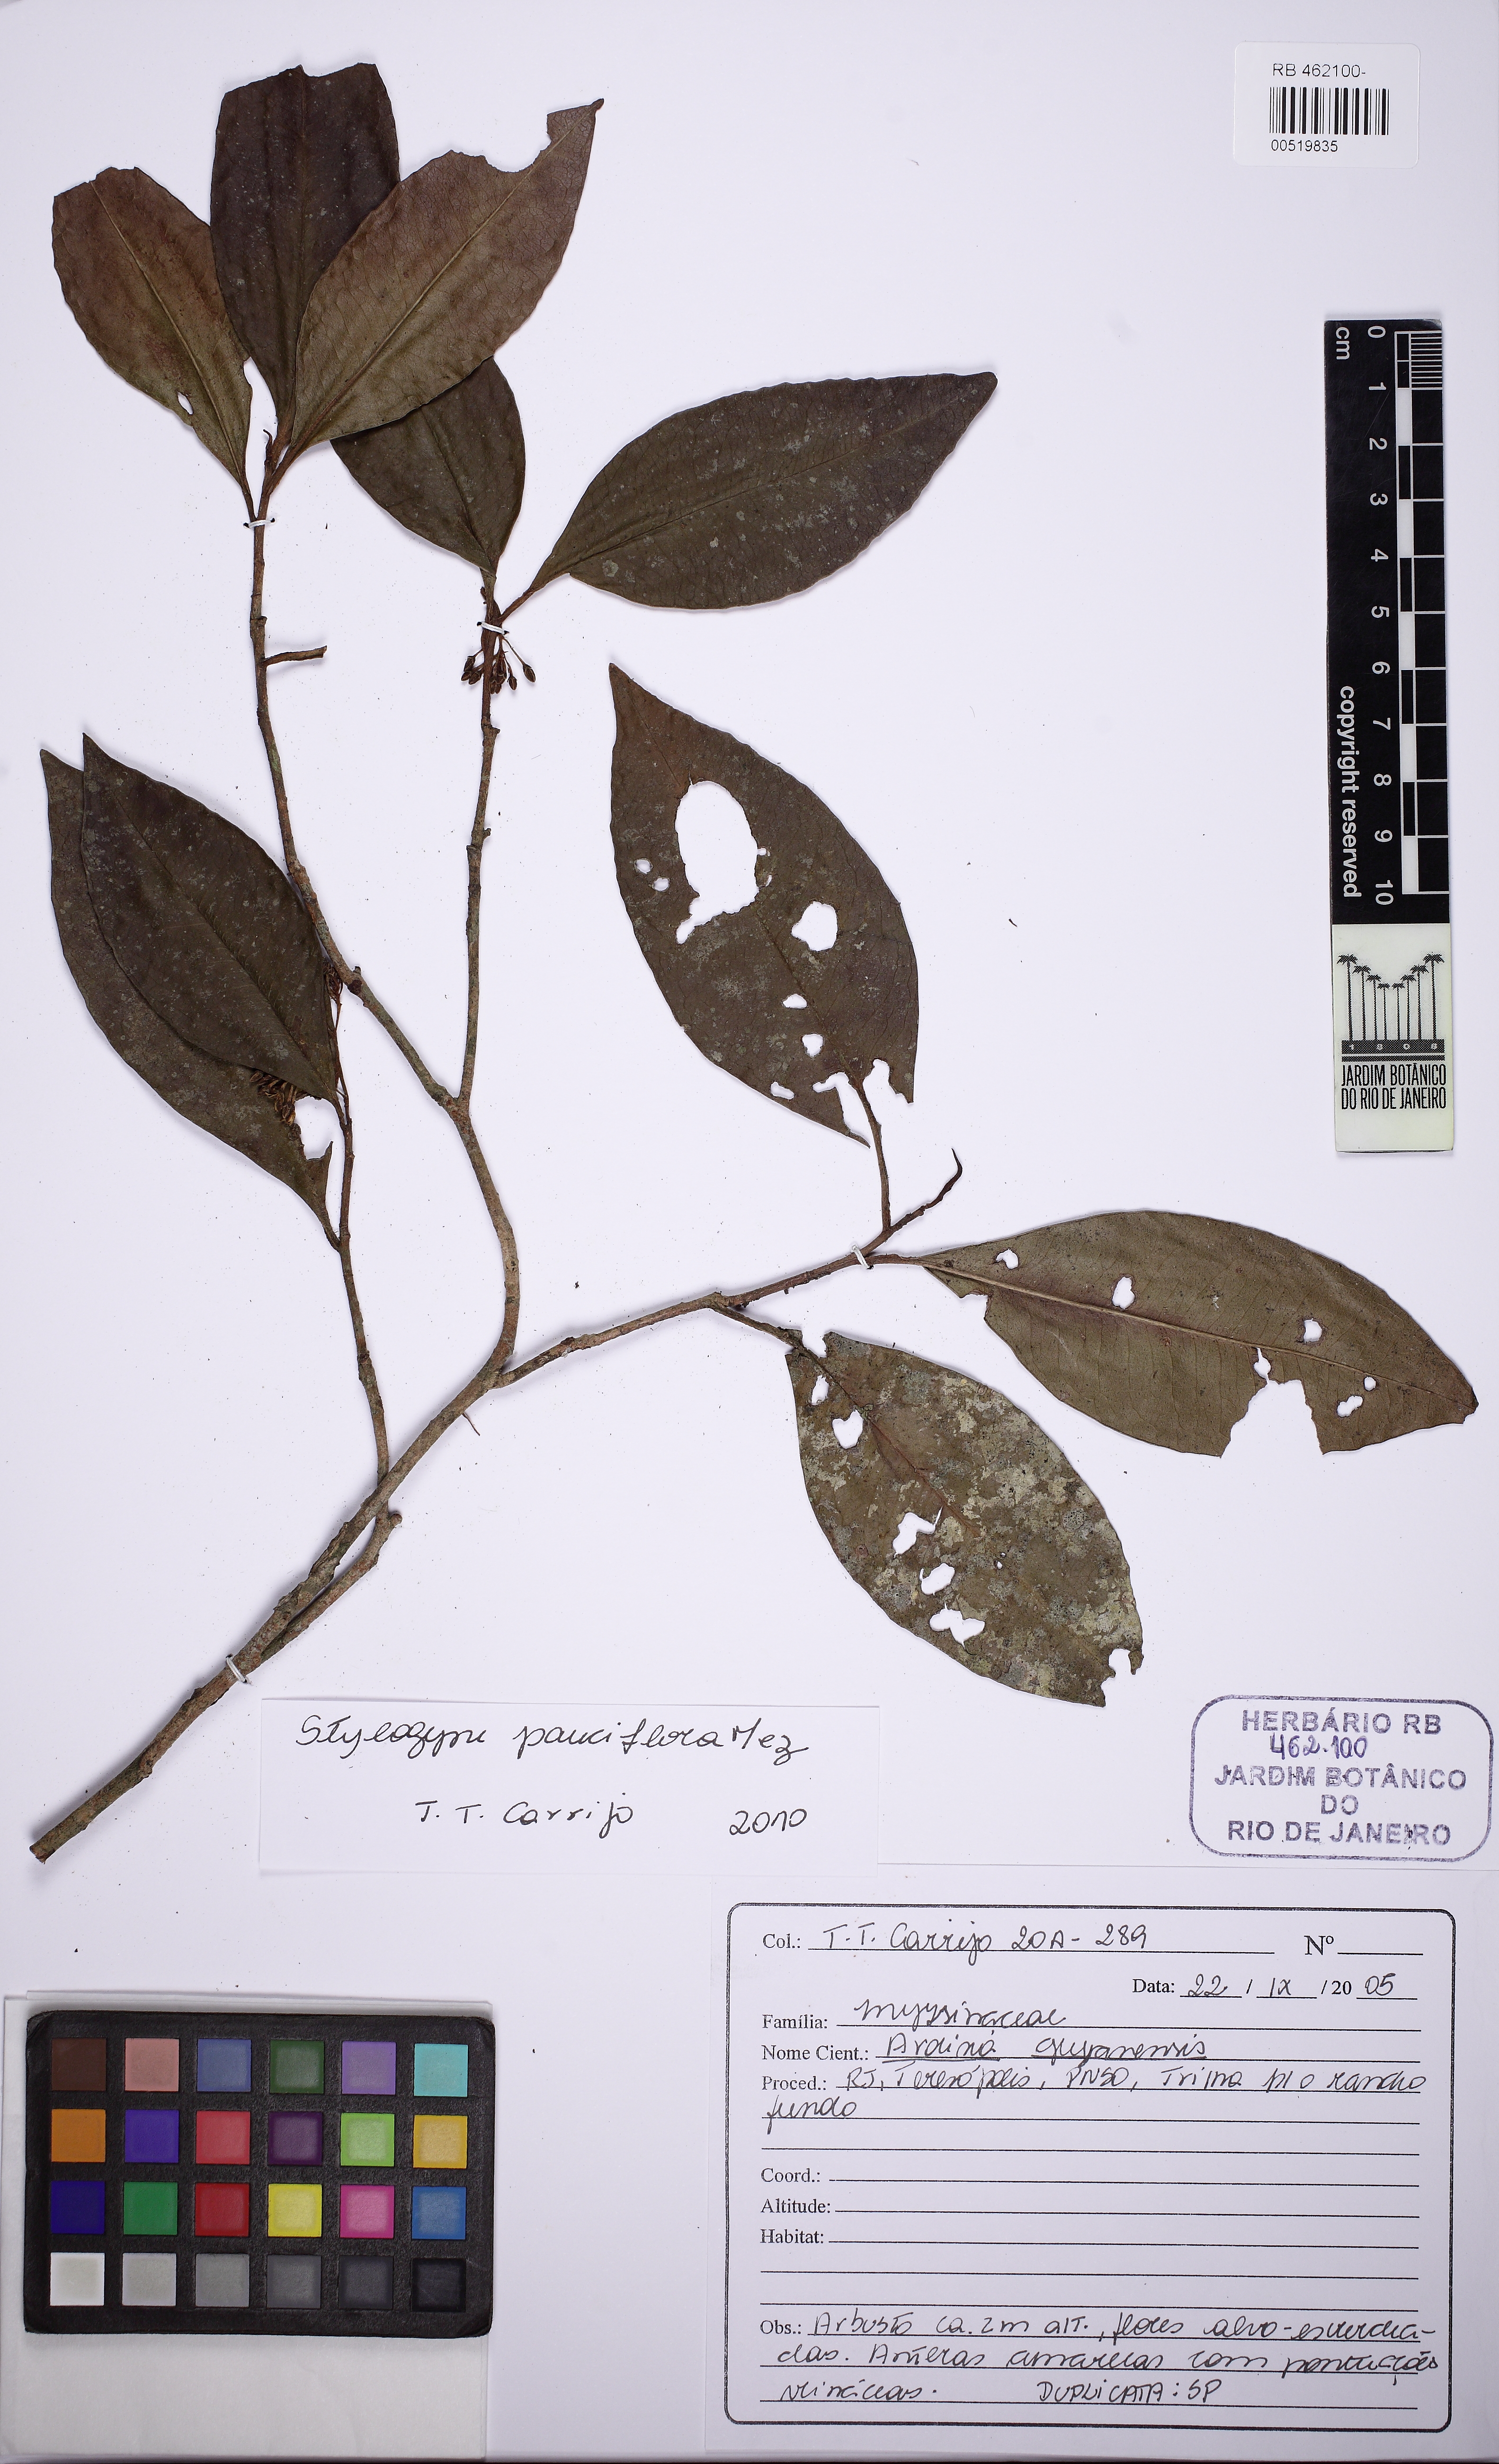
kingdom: Plantae
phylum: Tracheophyta
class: Magnoliopsida
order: Ericales
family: Primulaceae
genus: Stylogyne
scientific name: Stylogyne pauciflora
